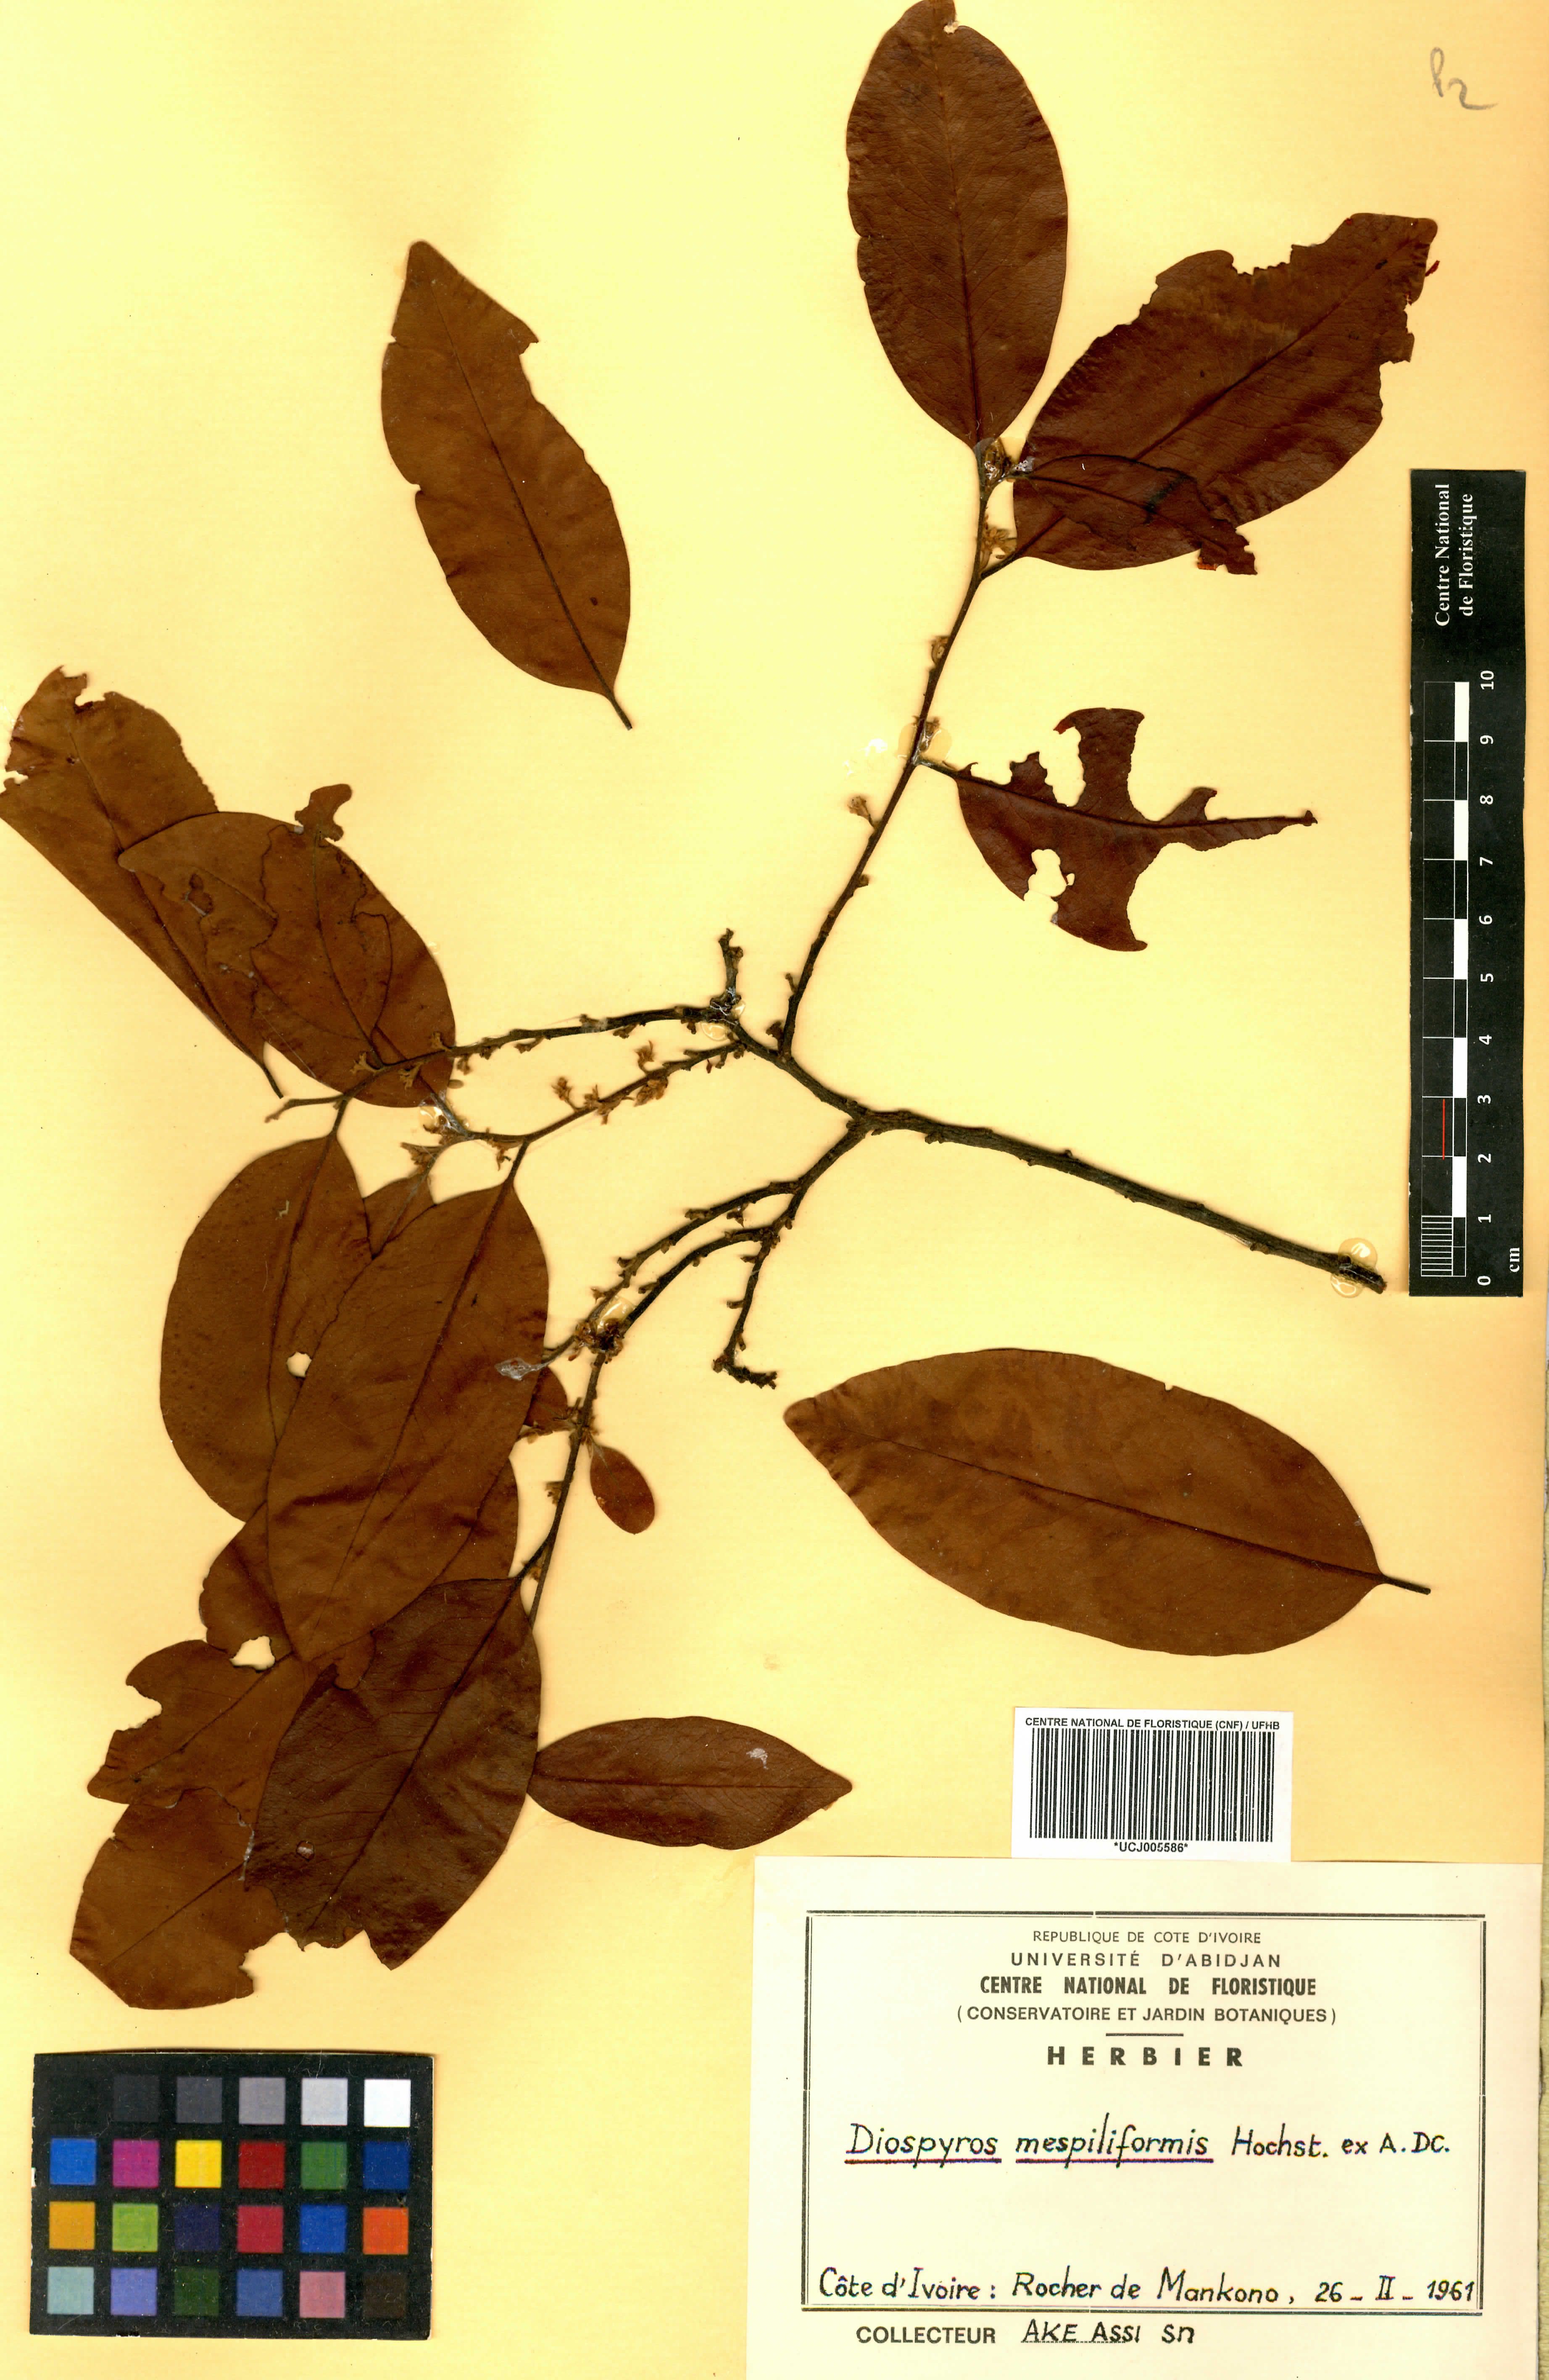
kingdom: Plantae
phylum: Tracheophyta
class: Magnoliopsida
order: Ericales
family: Ebenaceae
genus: Diospyros
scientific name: Diospyros mespiliformis
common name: Ebony diospyros
